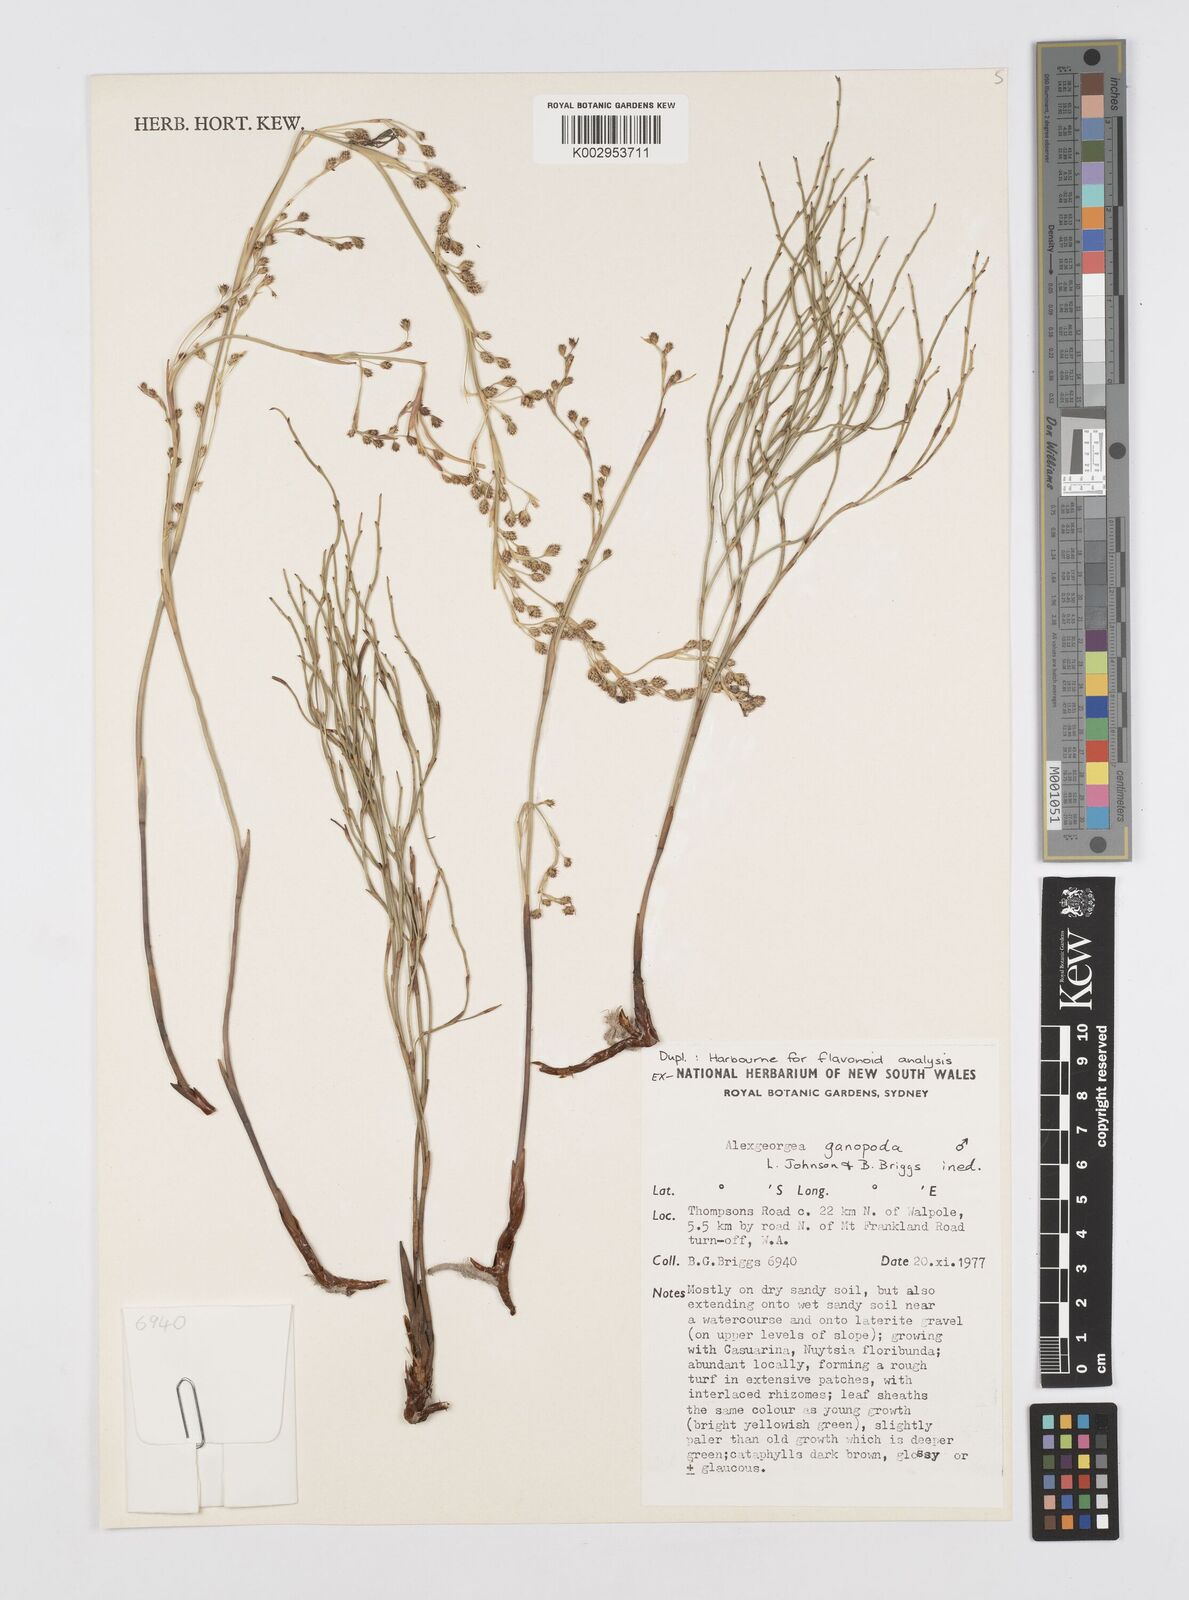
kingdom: Plantae
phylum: Tracheophyta
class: Liliopsida
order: Poales
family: Restionaceae
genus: Alexgeorgea
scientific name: Alexgeorgea ganopoda
